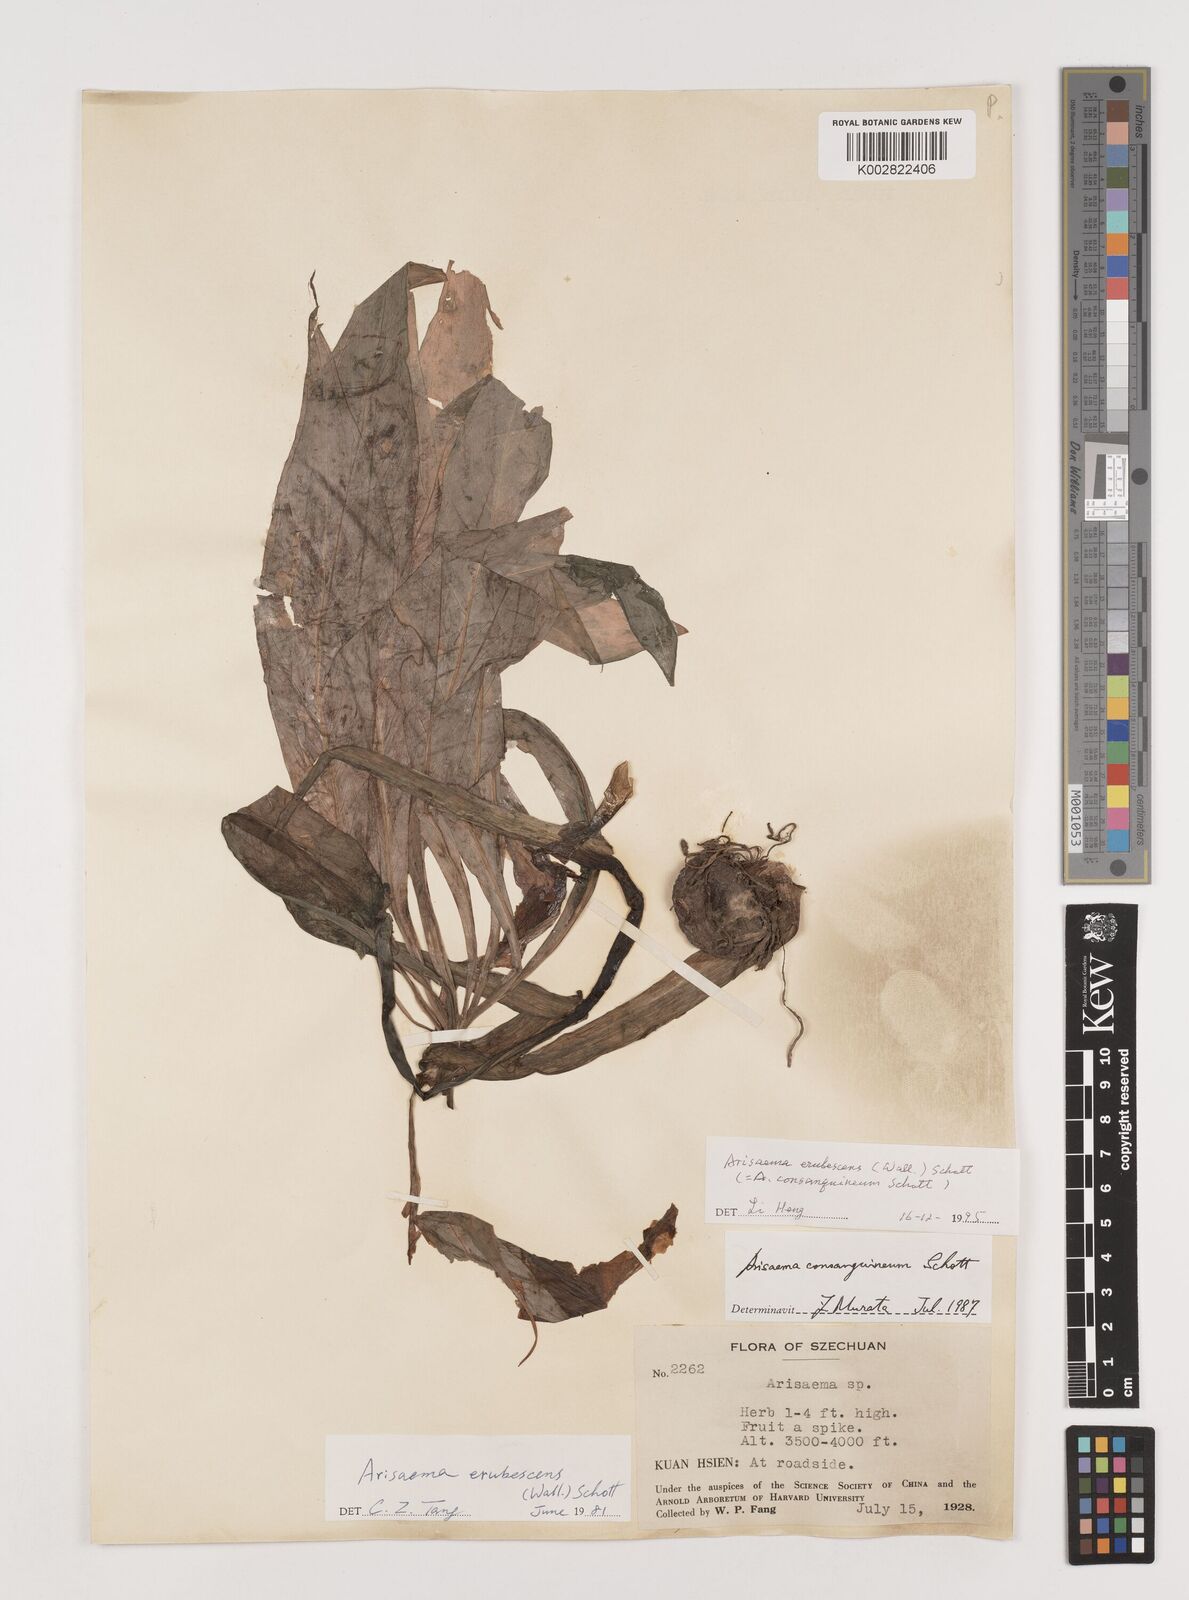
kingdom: Plantae
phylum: Tracheophyta
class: Liliopsida
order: Alismatales
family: Araceae
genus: Arisaema
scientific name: Arisaema erubescens
